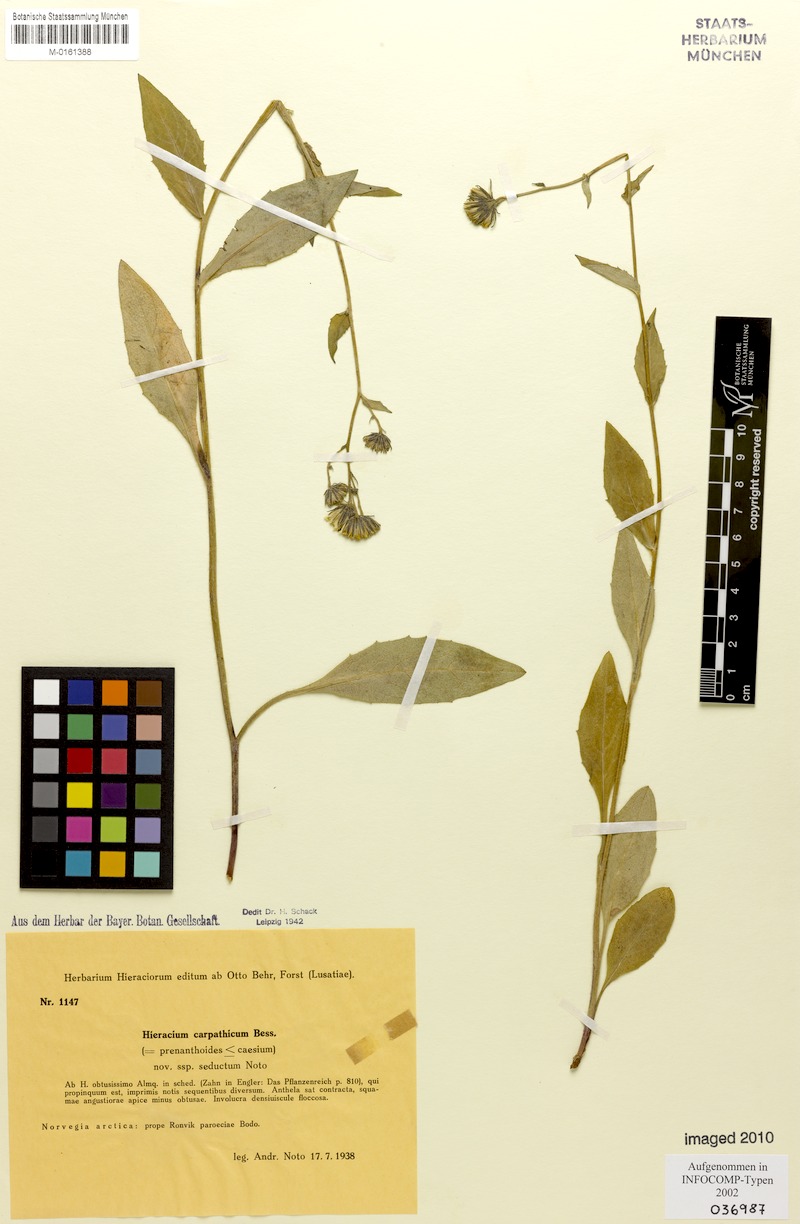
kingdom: Plantae
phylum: Tracheophyta
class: Magnoliopsida
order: Asterales
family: Asteraceae
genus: Hieracium
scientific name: Hieracium carpathicum
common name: Perth hawkweed
